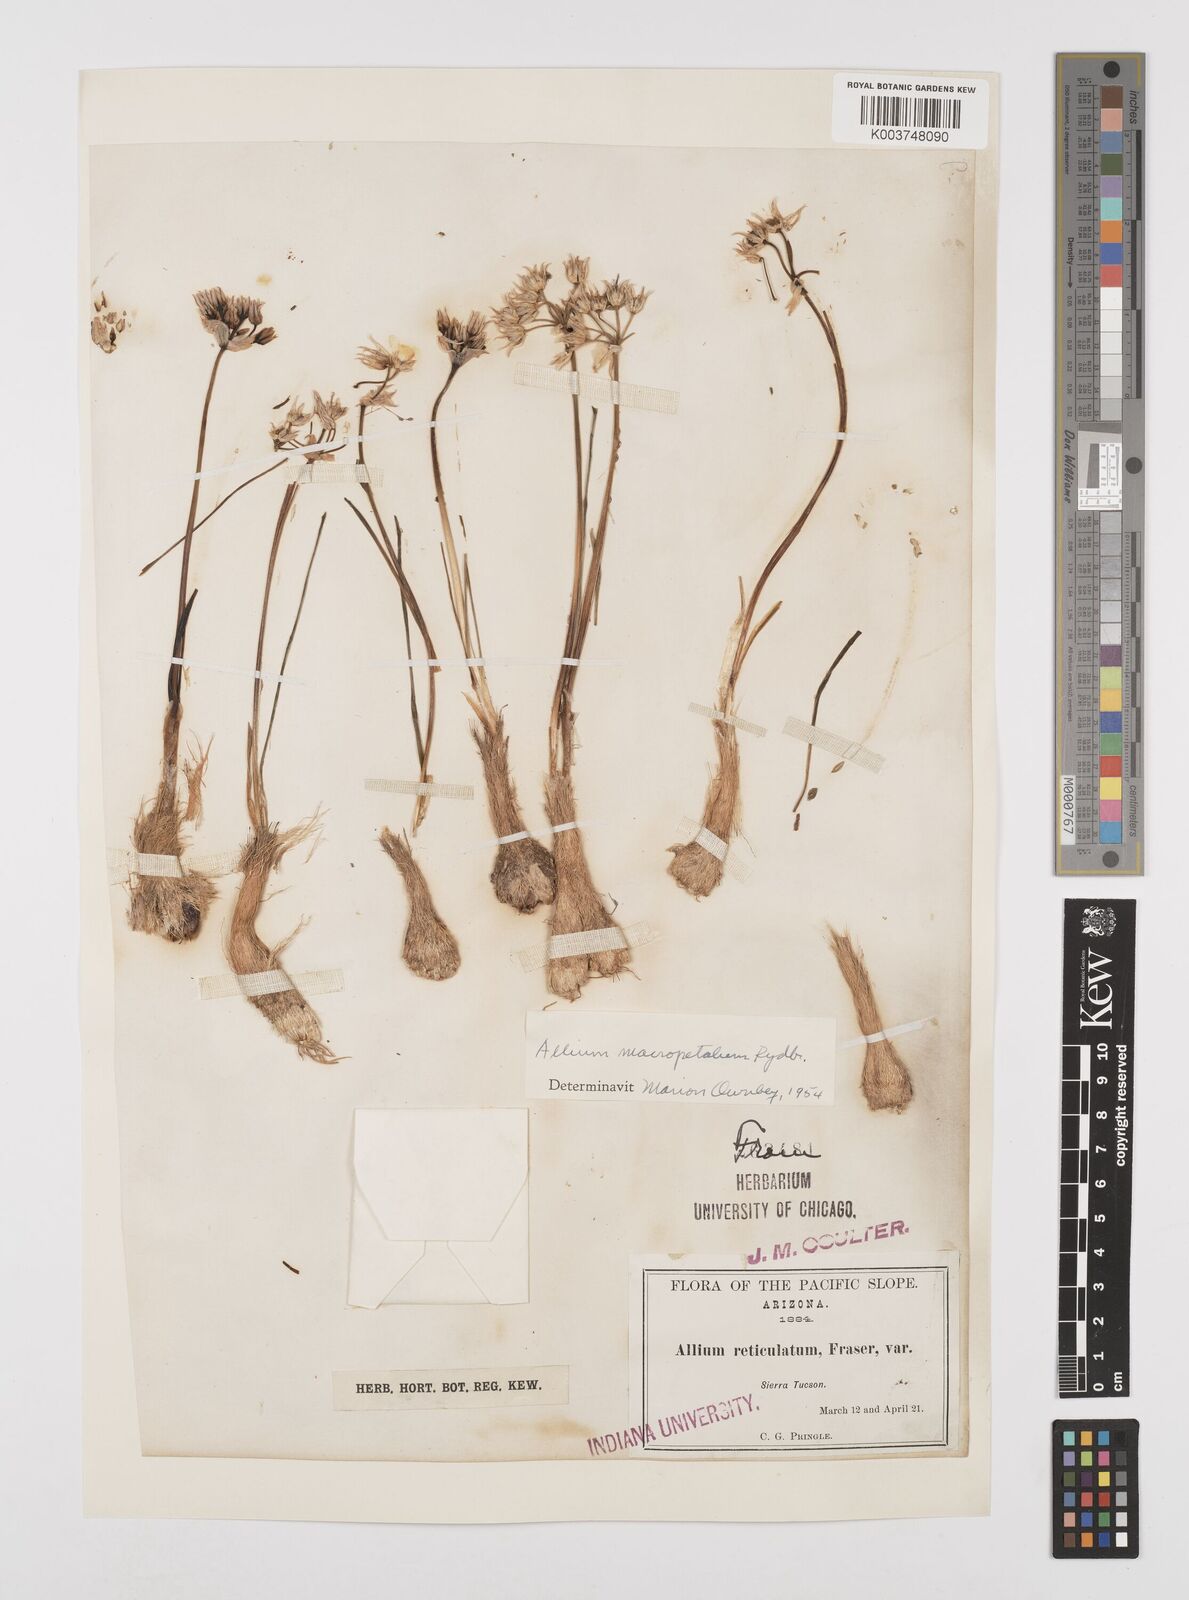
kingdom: Plantae
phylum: Tracheophyta
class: Liliopsida
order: Asparagales
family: Amaryllidaceae
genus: Allium
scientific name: Allium macropetalum
